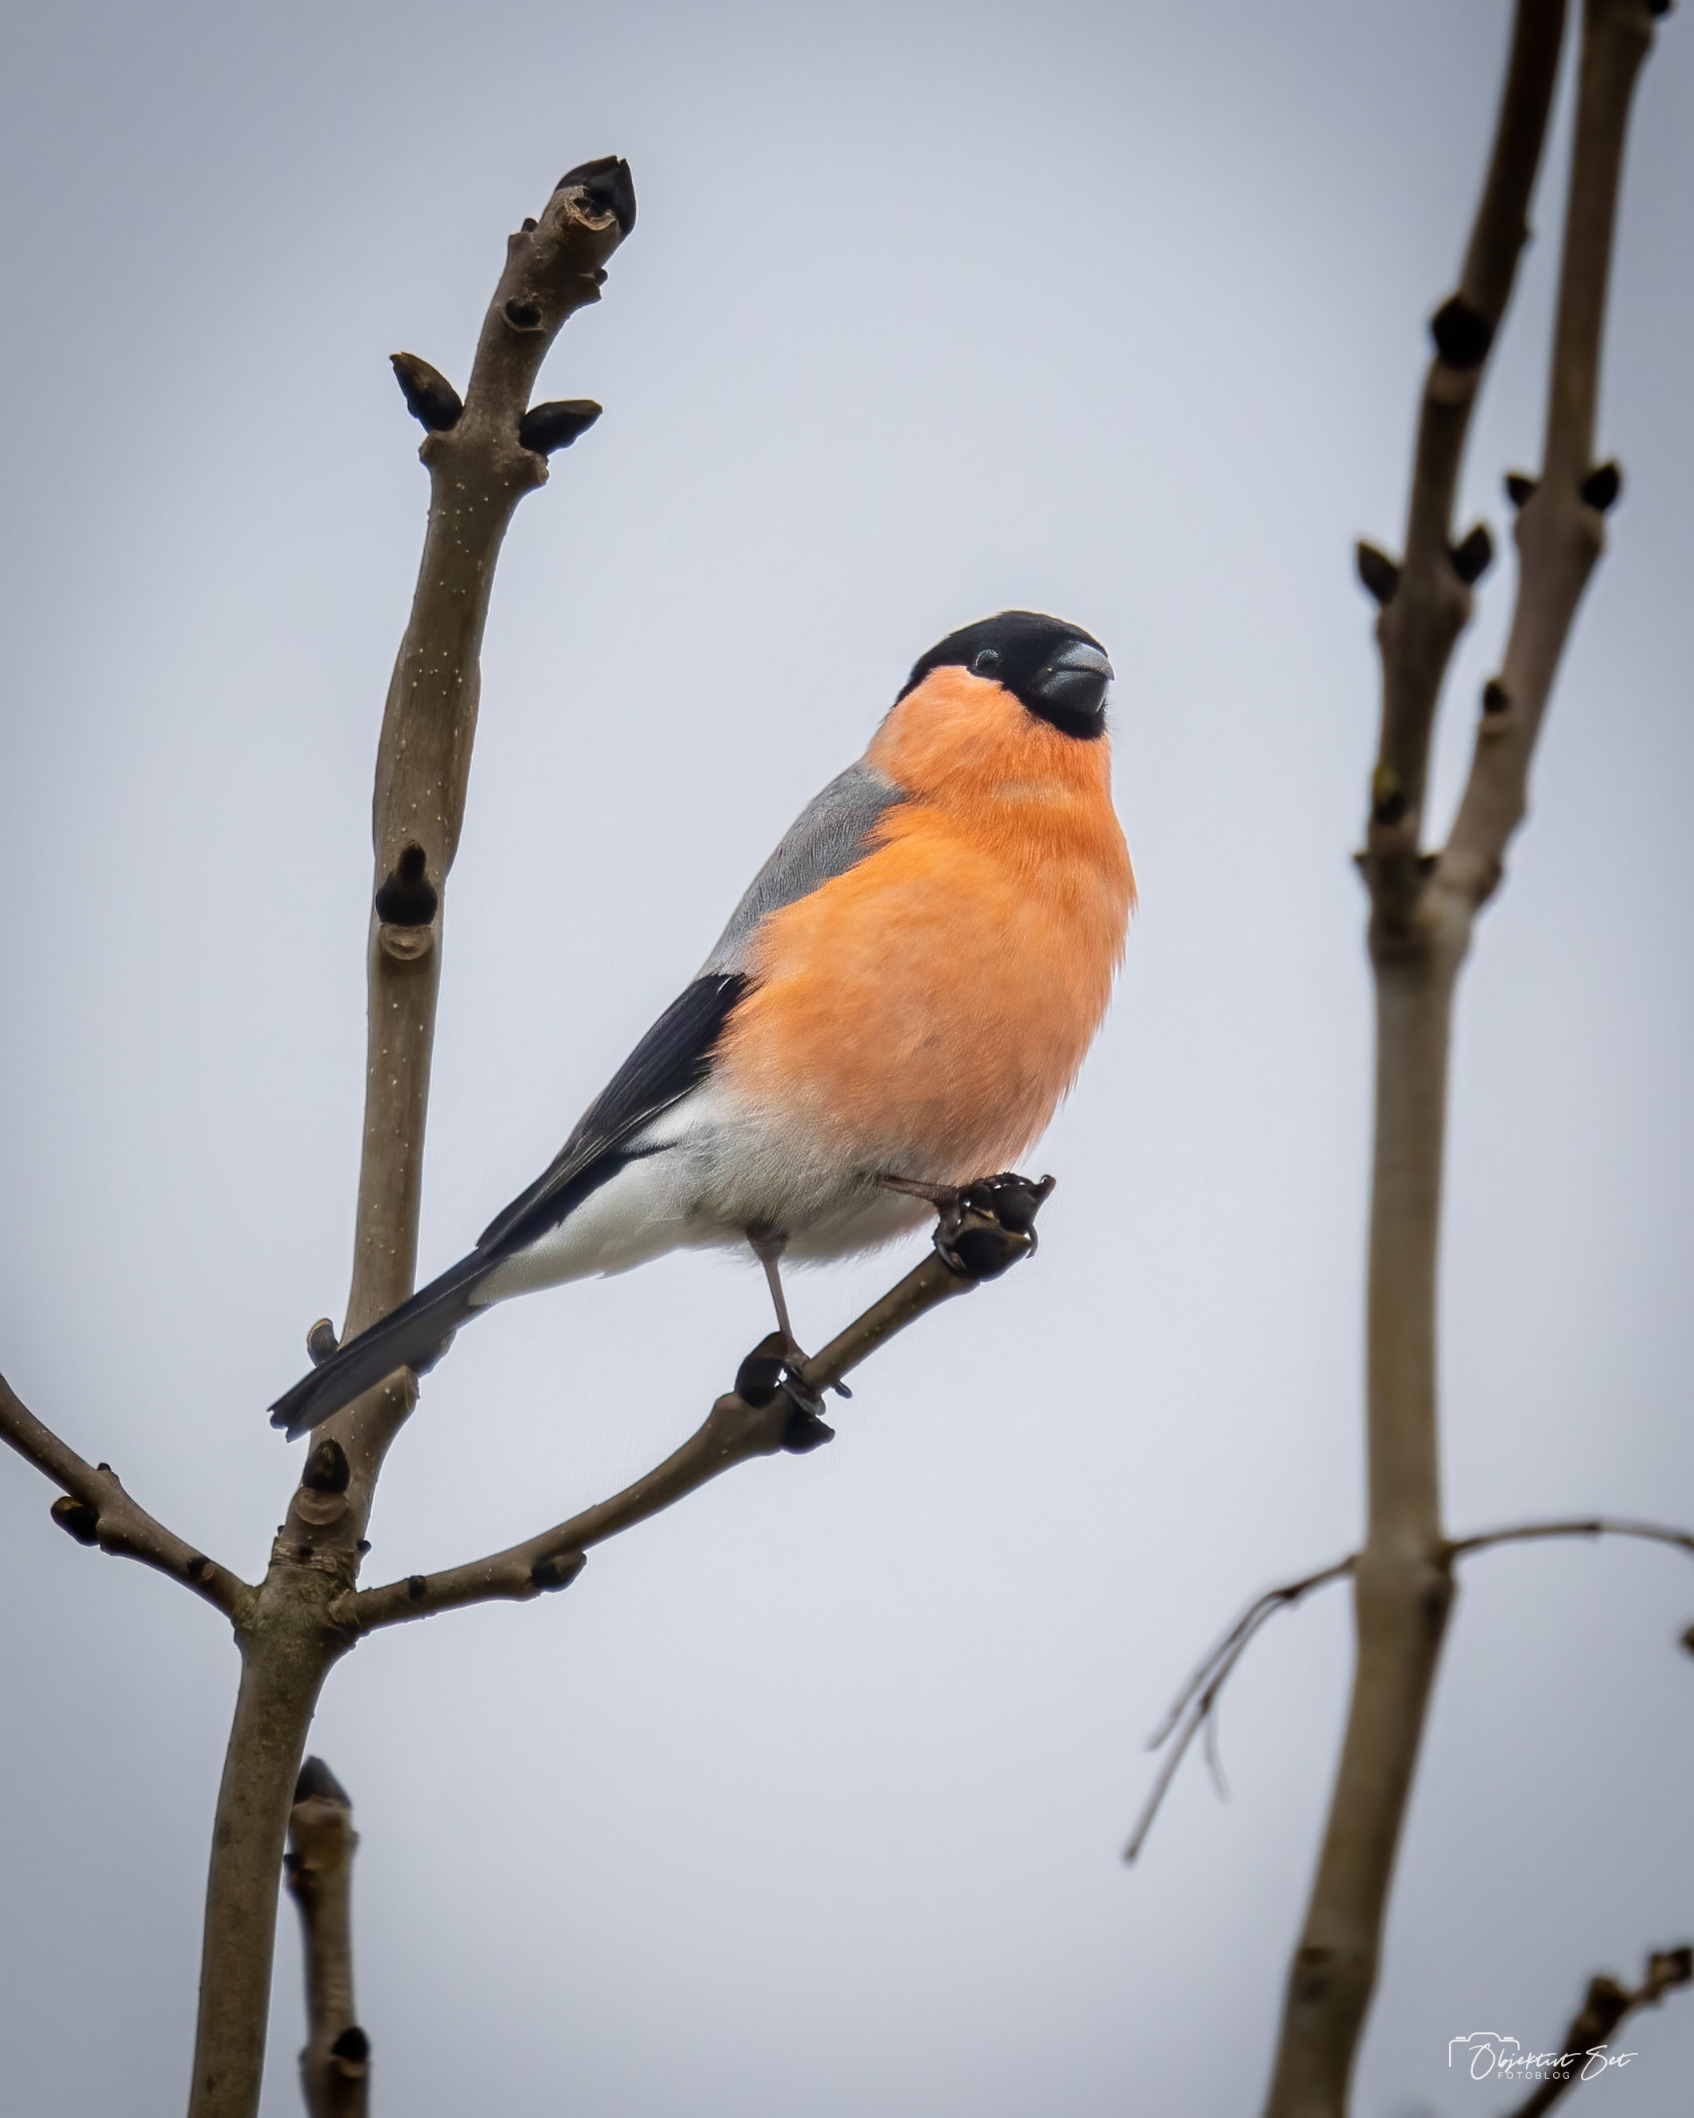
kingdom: Animalia
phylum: Chordata
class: Aves
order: Passeriformes
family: Fringillidae
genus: Pyrrhula
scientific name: Pyrrhula pyrrhula
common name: Dompap
